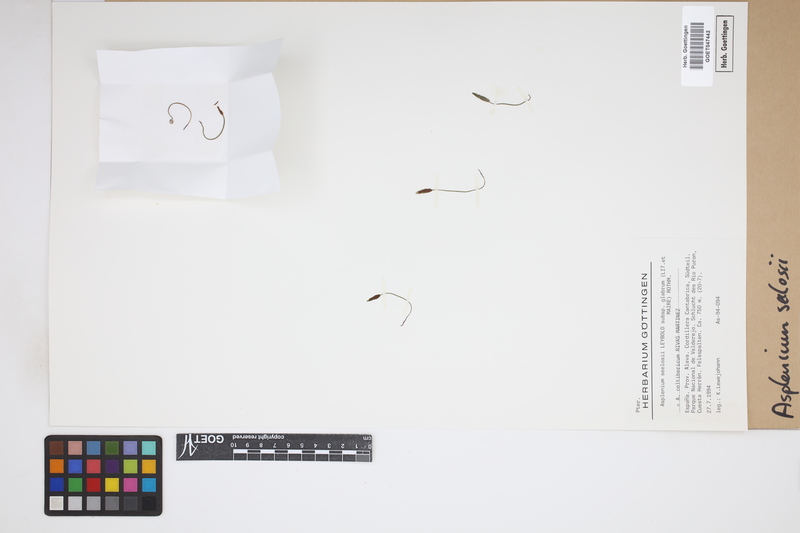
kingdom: Plantae
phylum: Tracheophyta
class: Polypodiopsida
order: Polypodiales
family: Aspleniaceae
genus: Asplenium
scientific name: Asplenium seelosii
